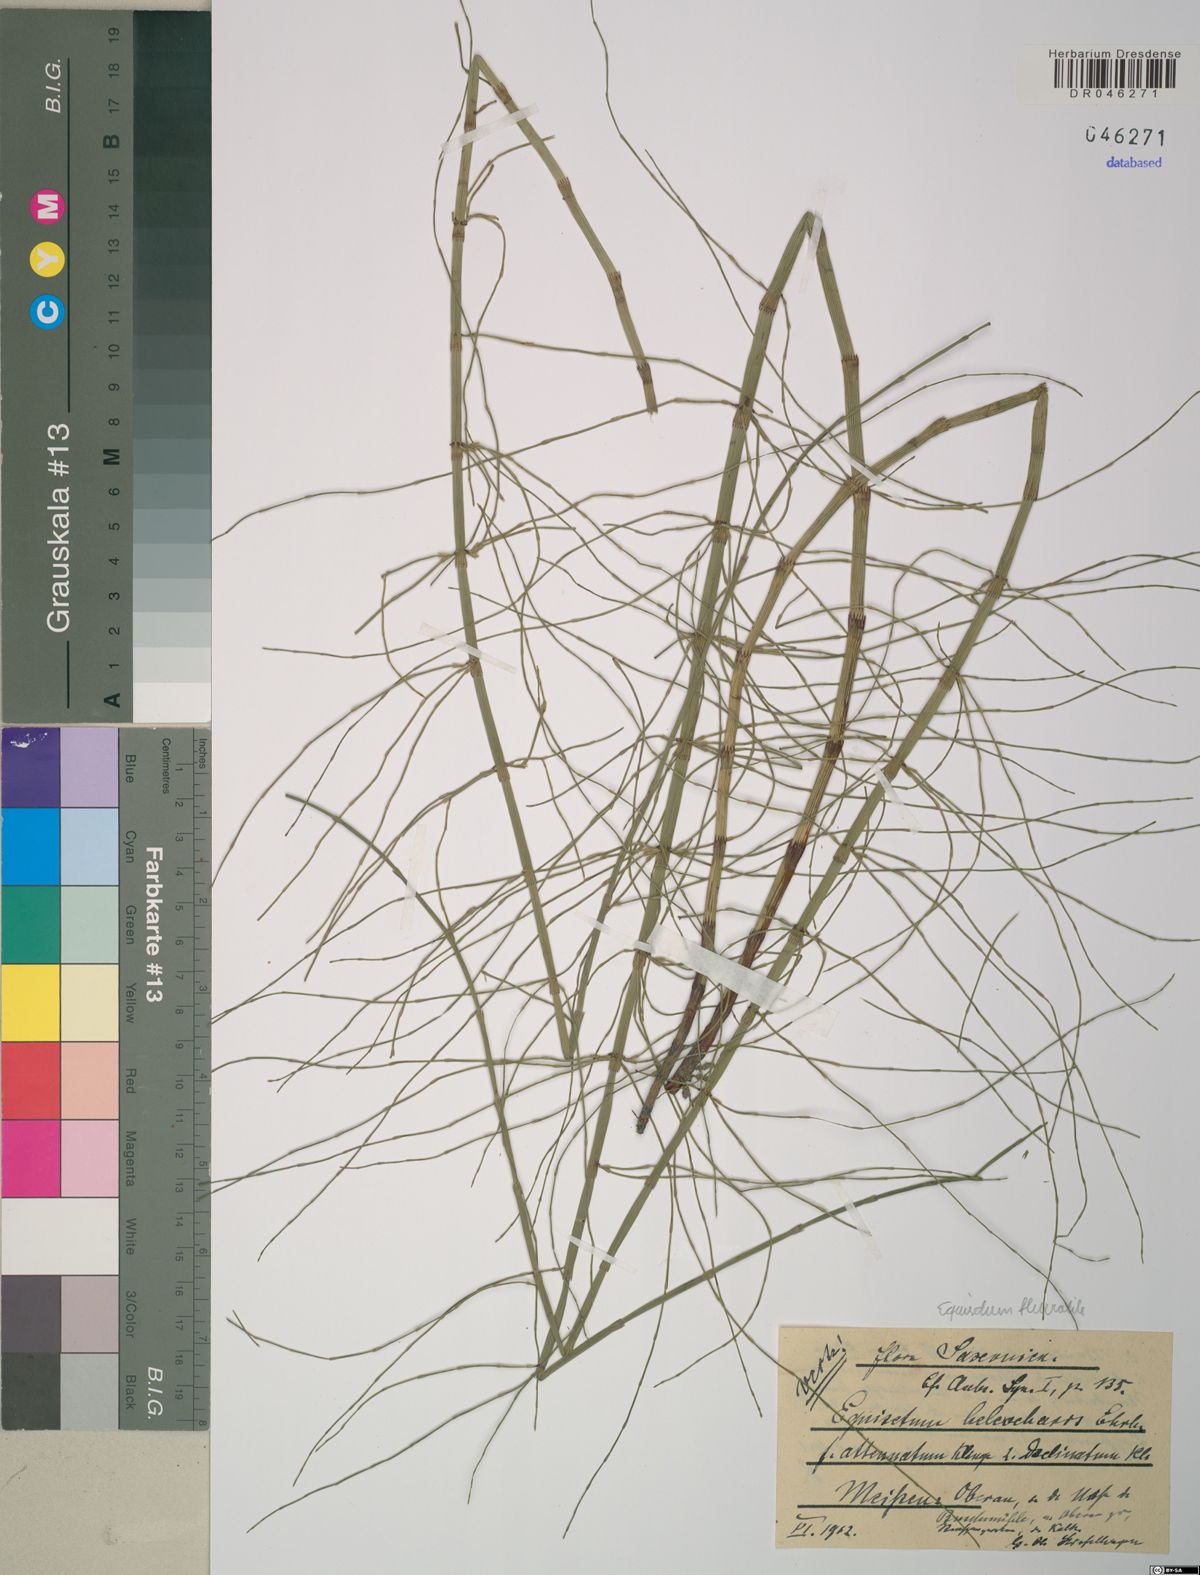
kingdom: Plantae
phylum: Tracheophyta
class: Polypodiopsida
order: Equisetales
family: Equisetaceae
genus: Equisetum
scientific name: Equisetum fluviatile
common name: Water horsetail
